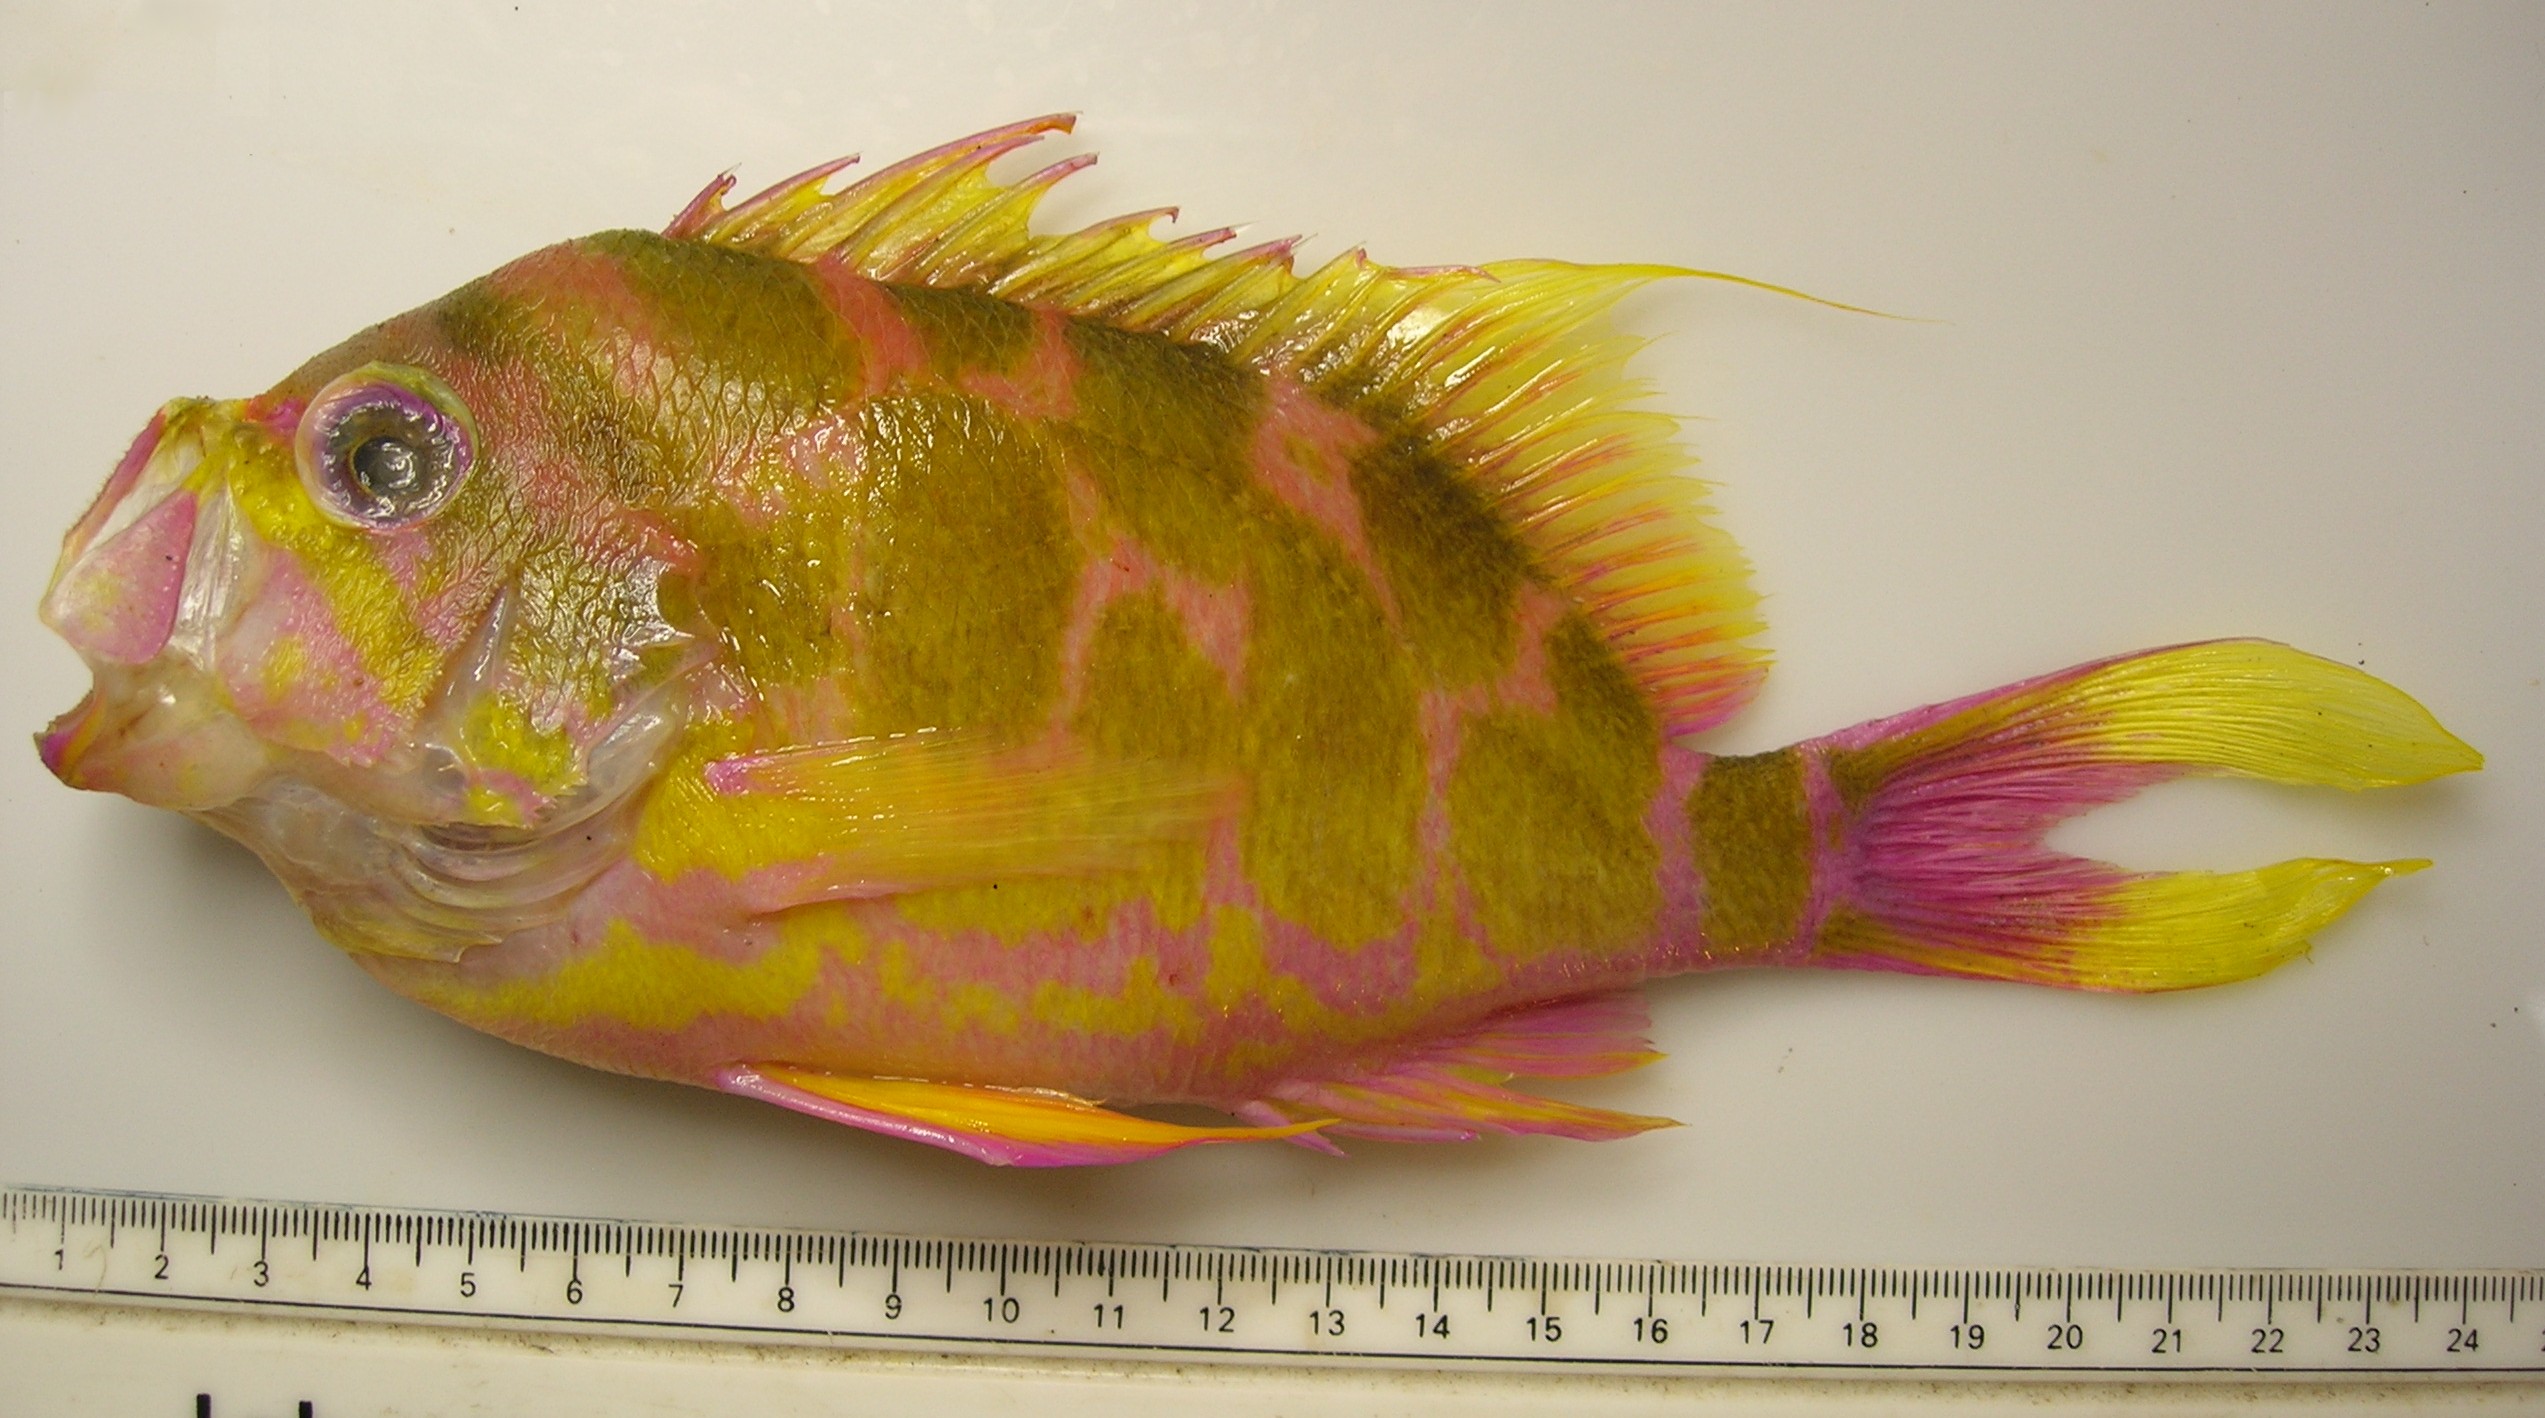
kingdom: Animalia
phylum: Chordata
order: Perciformes
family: Serranidae
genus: Holanthias
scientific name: Holanthias
